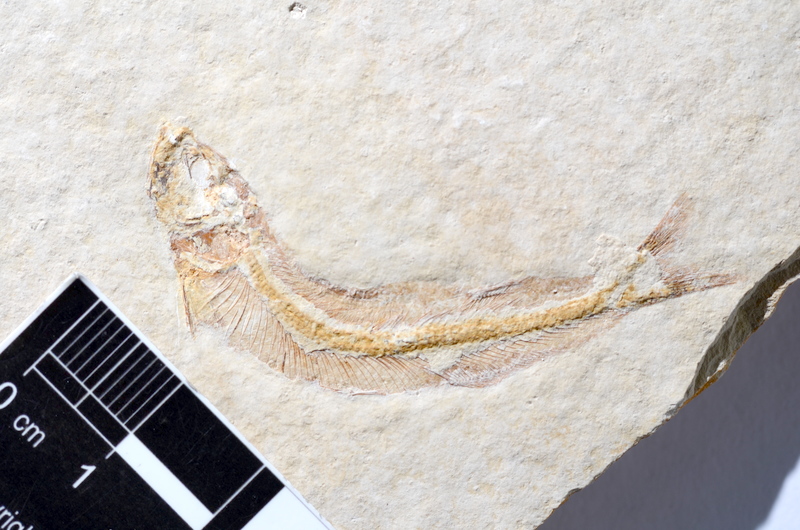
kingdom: Animalia
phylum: Chordata
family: Allothrissopidae
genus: Allothrissops
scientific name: Allothrissops mesogaster
